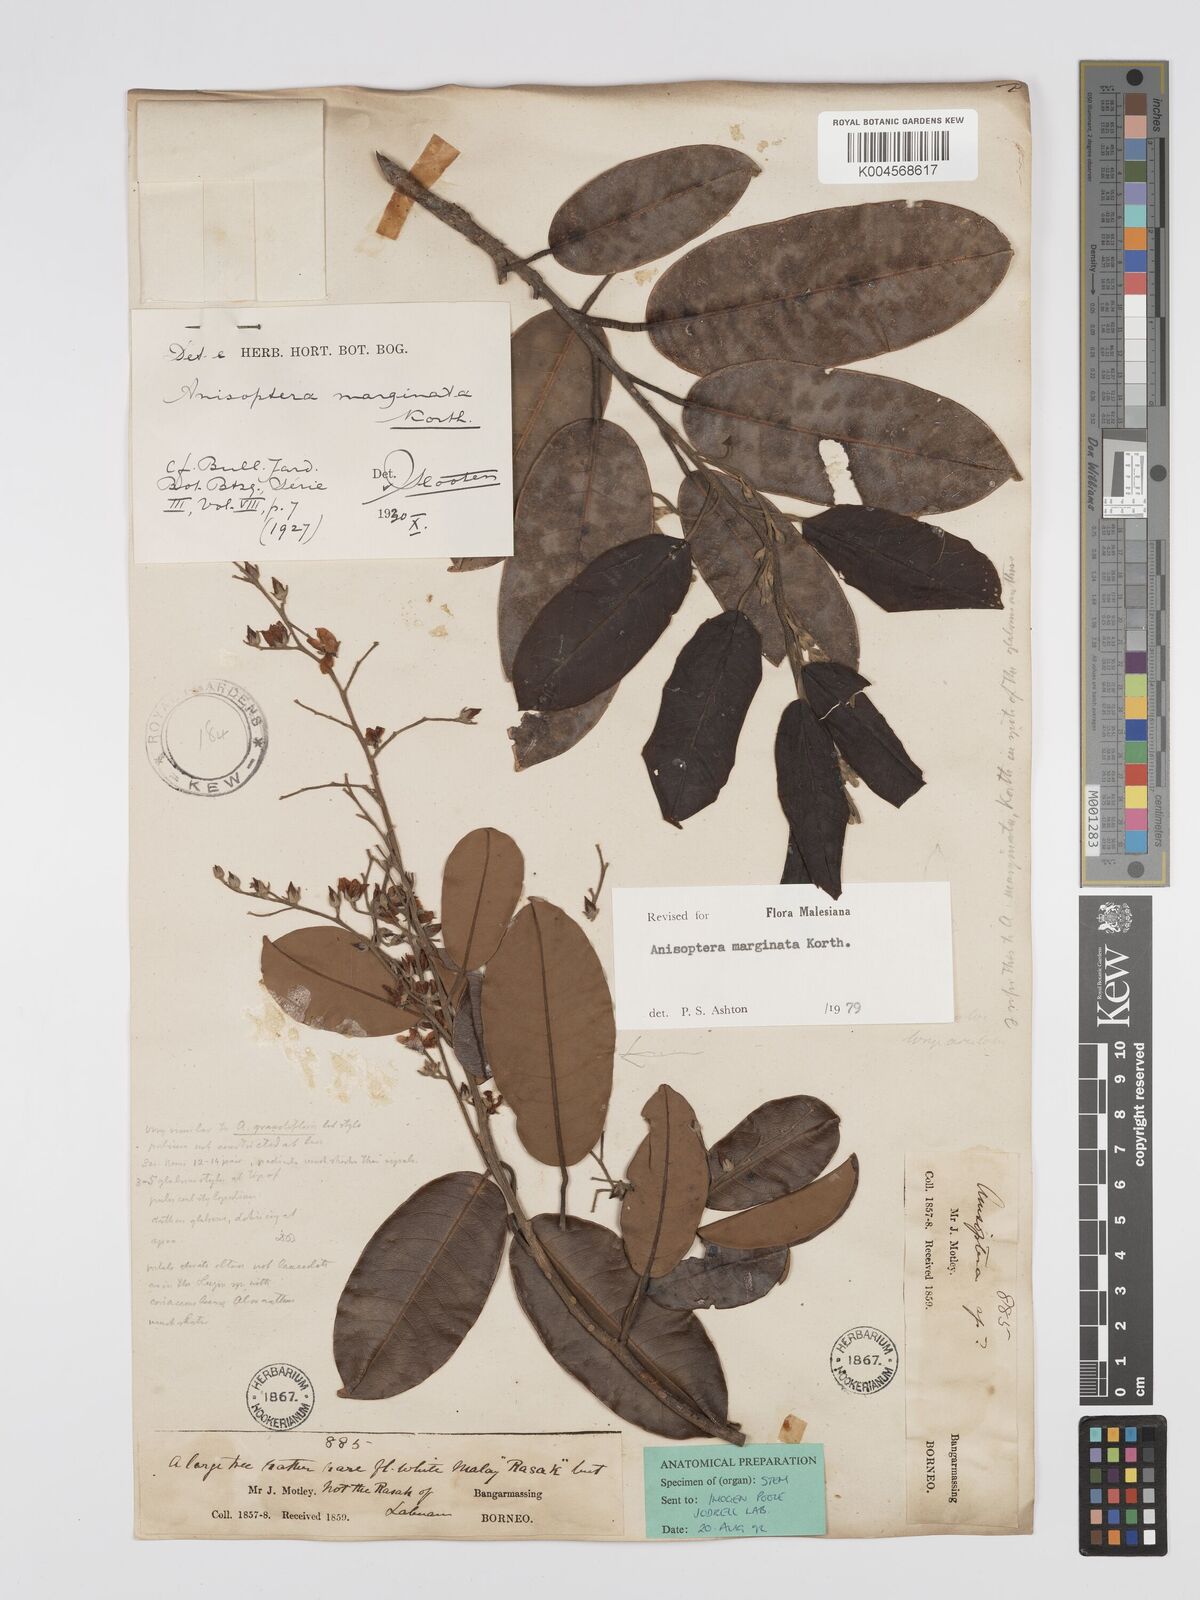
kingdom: Plantae
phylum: Tracheophyta
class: Magnoliopsida
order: Malvales
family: Dipterocarpaceae
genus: Anisoptera
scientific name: Anisoptera marginata
